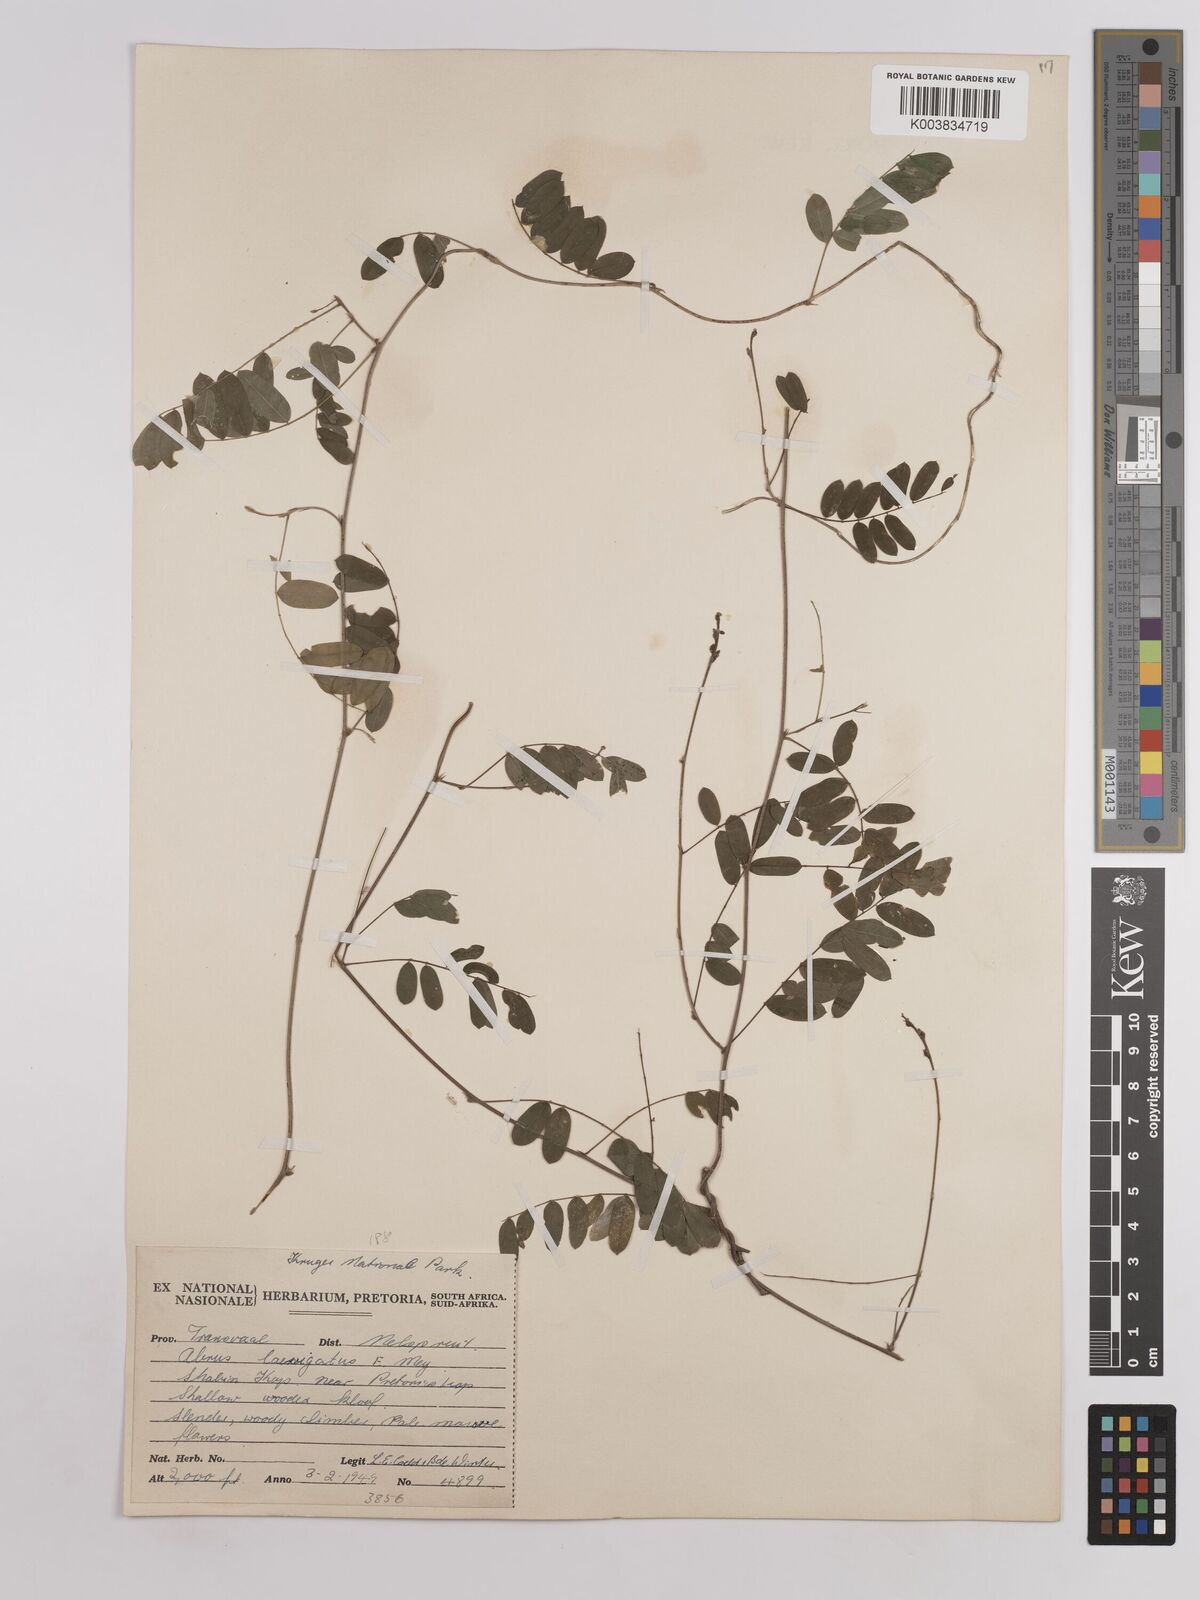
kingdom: Plantae
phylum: Tracheophyta
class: Magnoliopsida
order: Fabales
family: Fabaceae
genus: Abrus
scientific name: Abrus laevigatus
